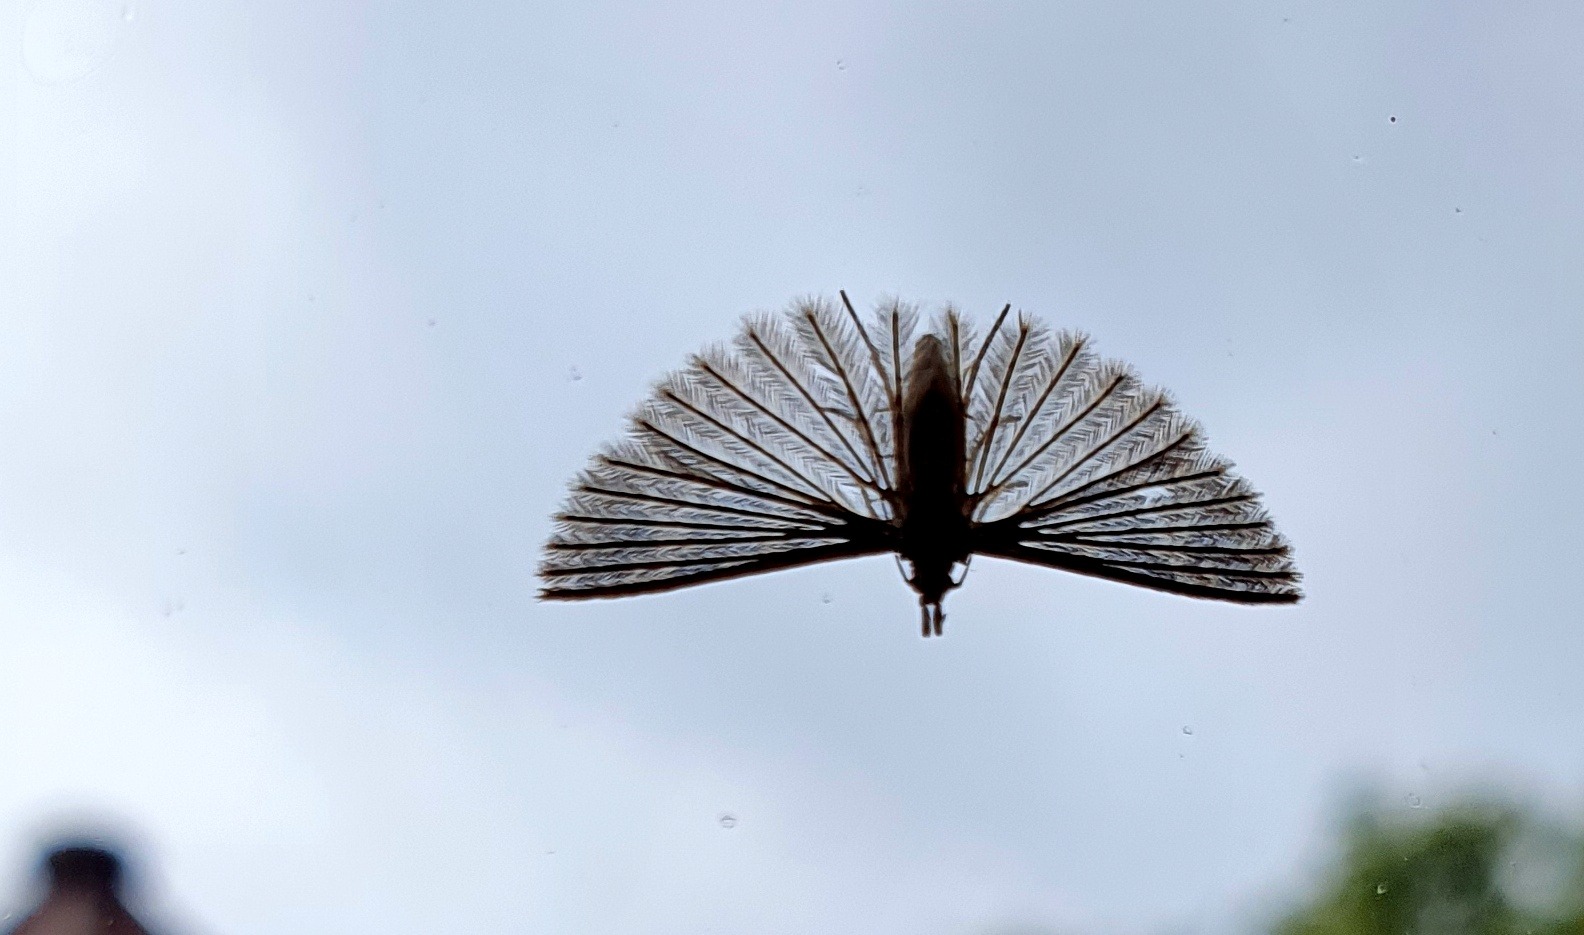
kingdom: Animalia
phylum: Arthropoda
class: Insecta
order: Lepidoptera
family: Alucitidae
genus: Alucita
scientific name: Alucita hexadactyla
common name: Kaprifoliefjermøl
